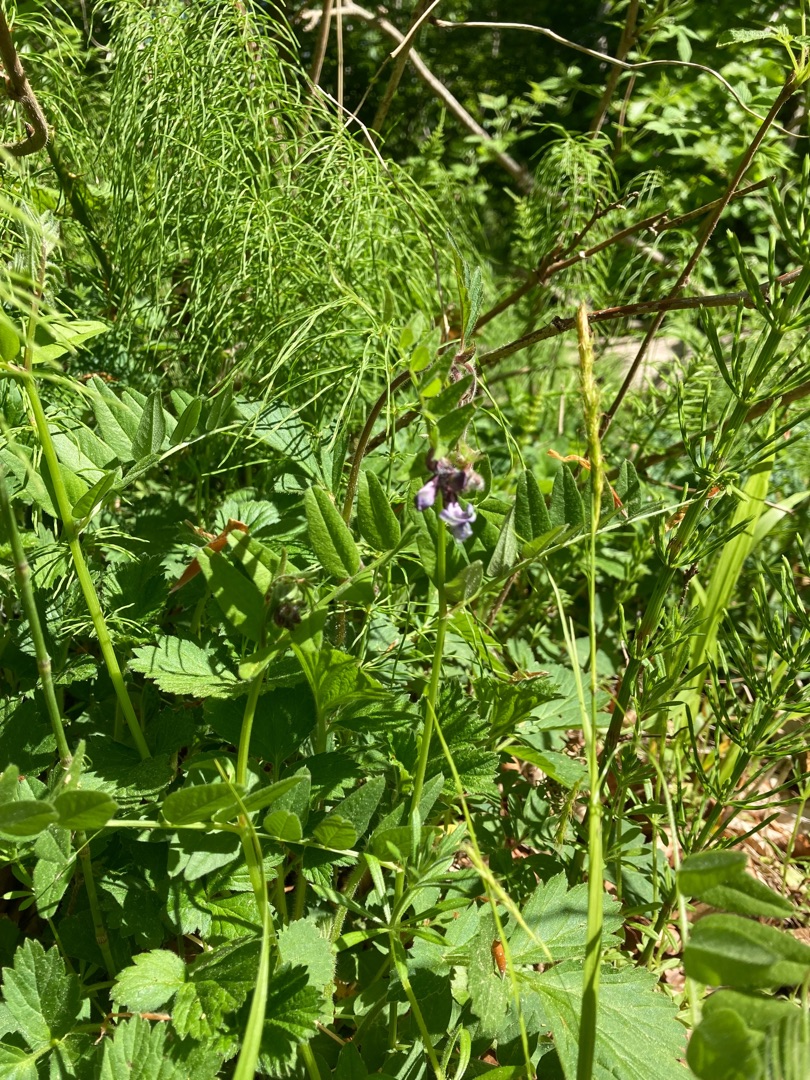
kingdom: Plantae
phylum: Tracheophyta
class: Magnoliopsida
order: Fabales
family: Fabaceae
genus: Vicia
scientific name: Vicia sepium
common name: Gærde-vikke
